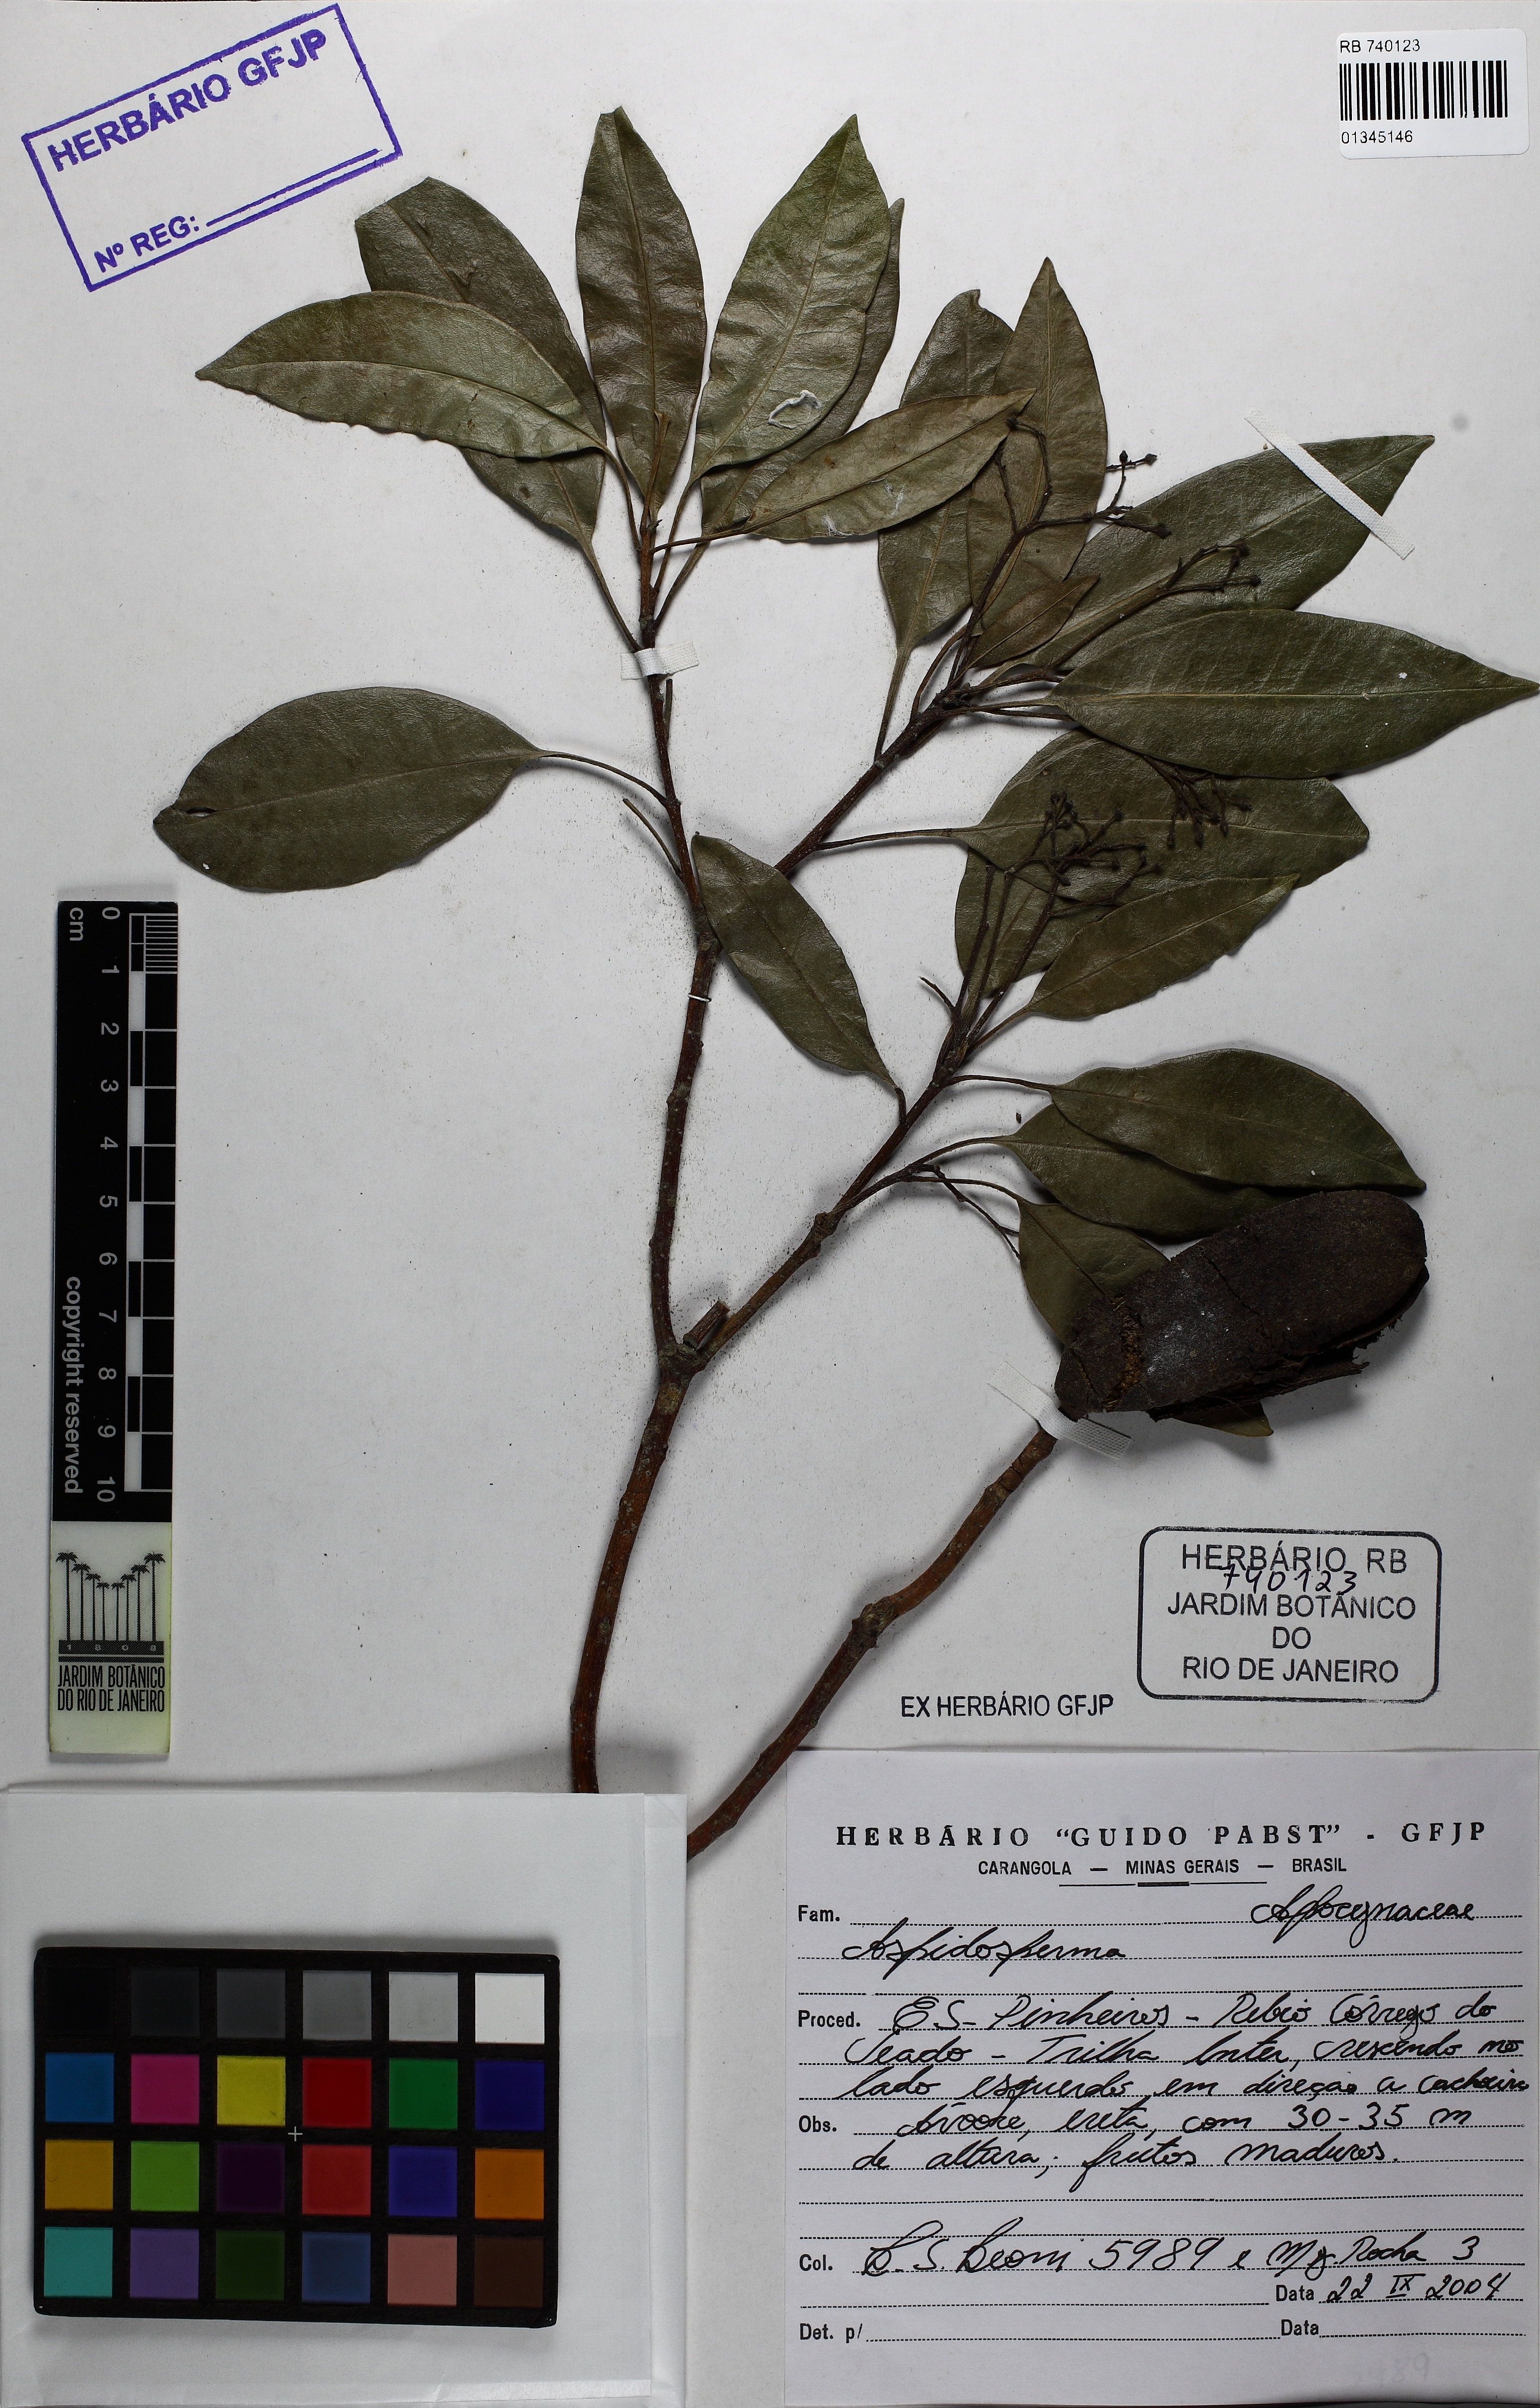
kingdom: Plantae
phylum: Tracheophyta
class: Magnoliopsida
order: Gentianales
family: Apocynaceae
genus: Aspidosperma
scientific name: Aspidosperma cylindrocarpon
